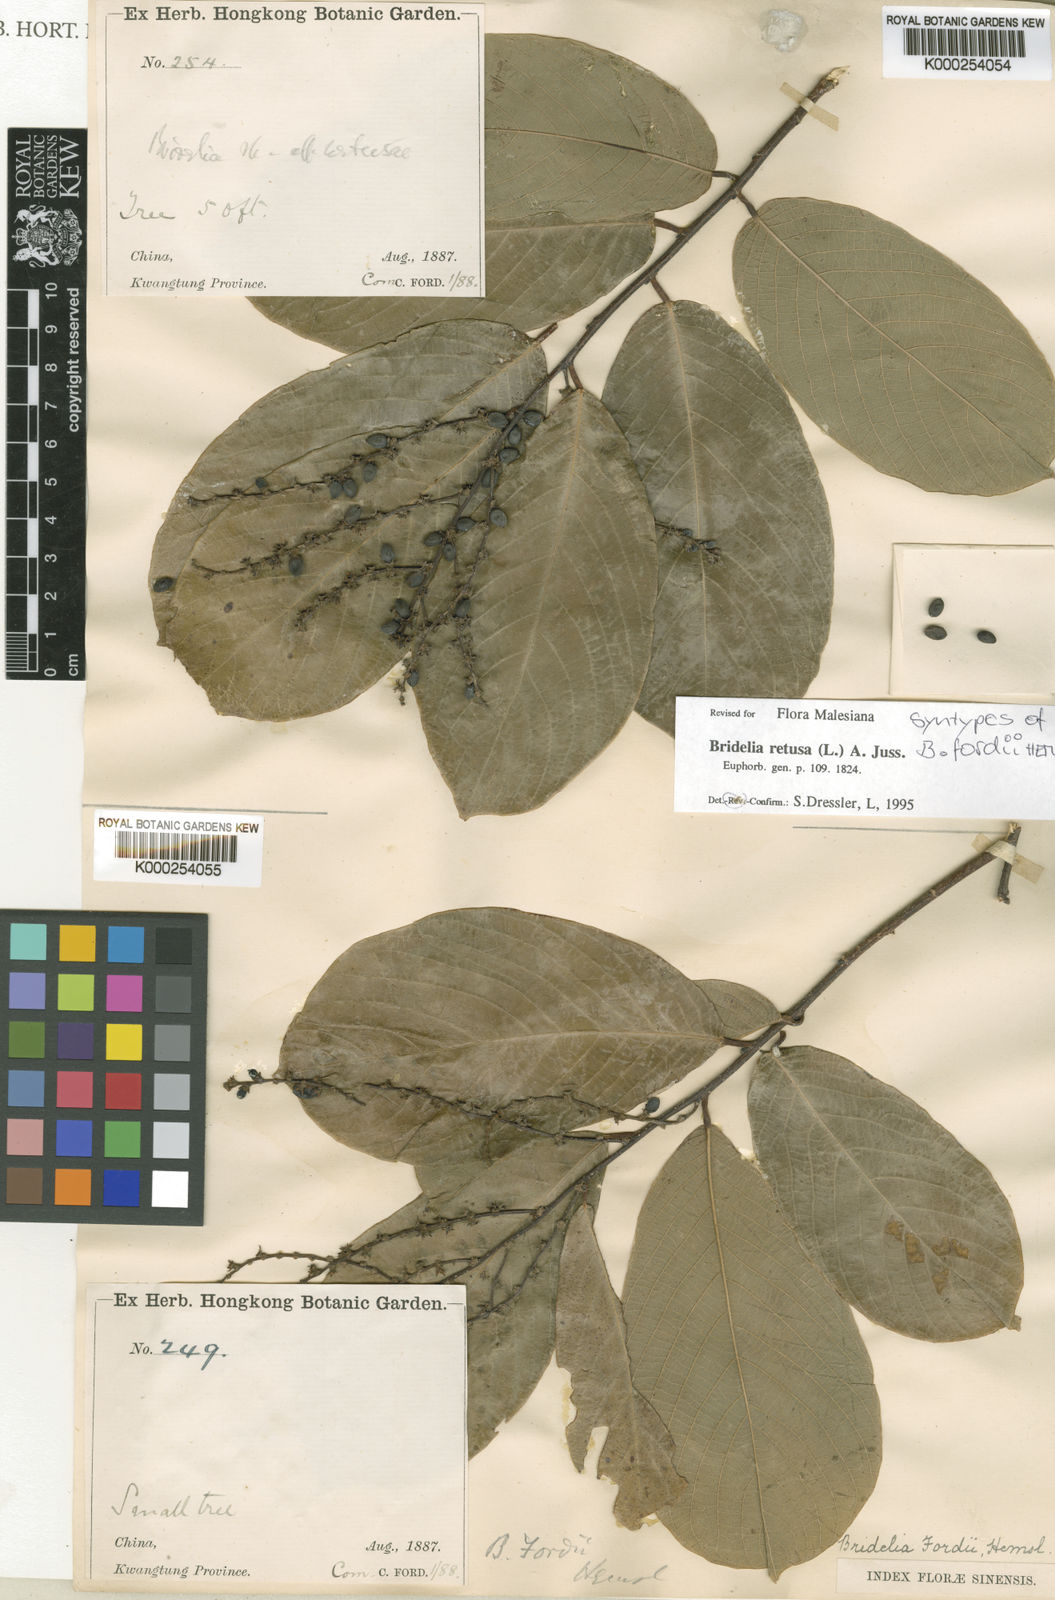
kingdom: Plantae
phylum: Tracheophyta
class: Magnoliopsida
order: Malpighiales
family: Phyllanthaceae
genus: Bridelia
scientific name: Bridelia retusa
